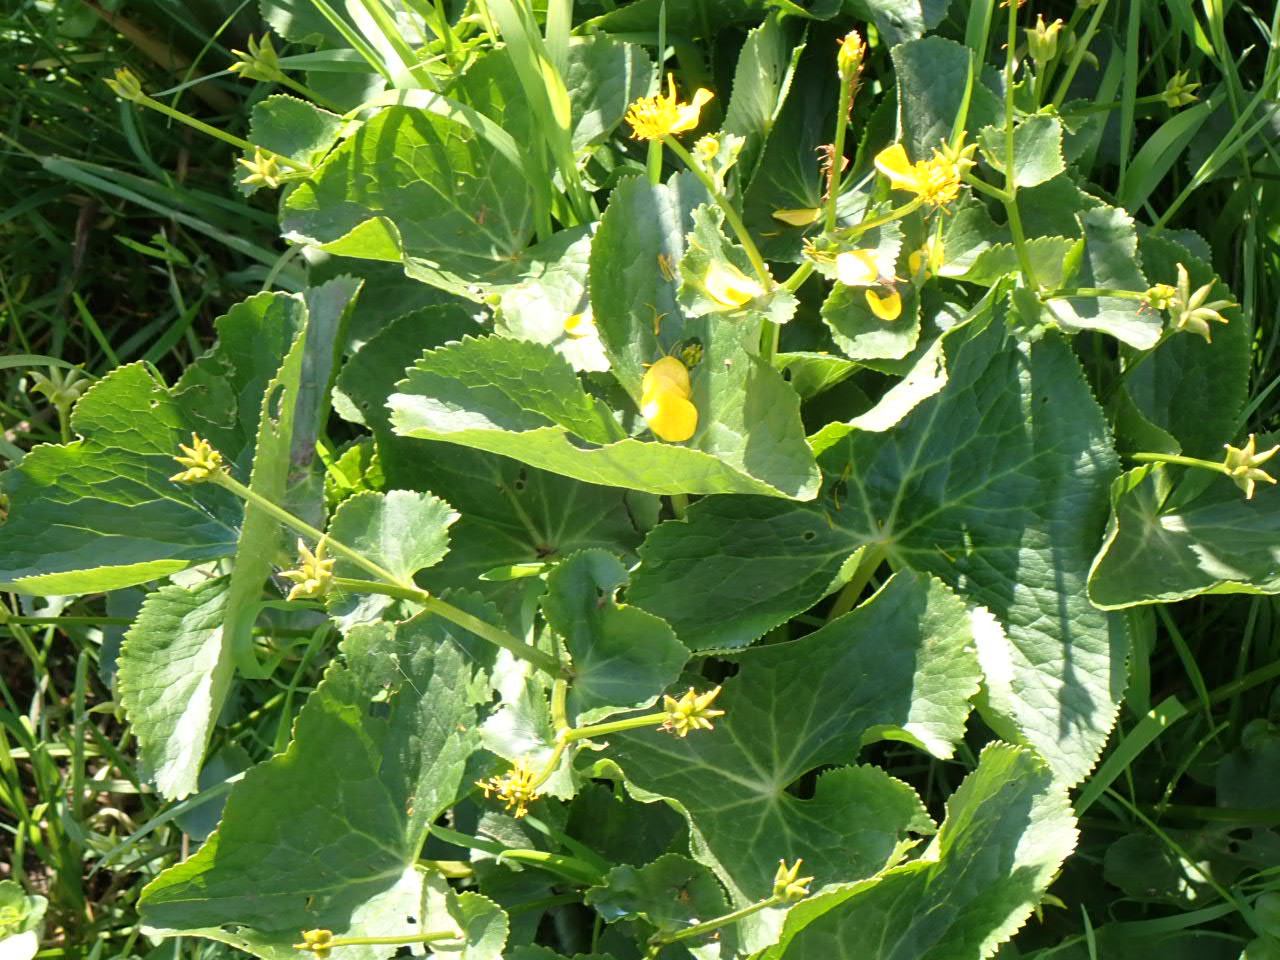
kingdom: Plantae
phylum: Tracheophyta
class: Magnoliopsida
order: Ranunculales
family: Ranunculaceae
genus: Caltha
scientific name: Caltha palustris
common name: Eng-kabbeleje
